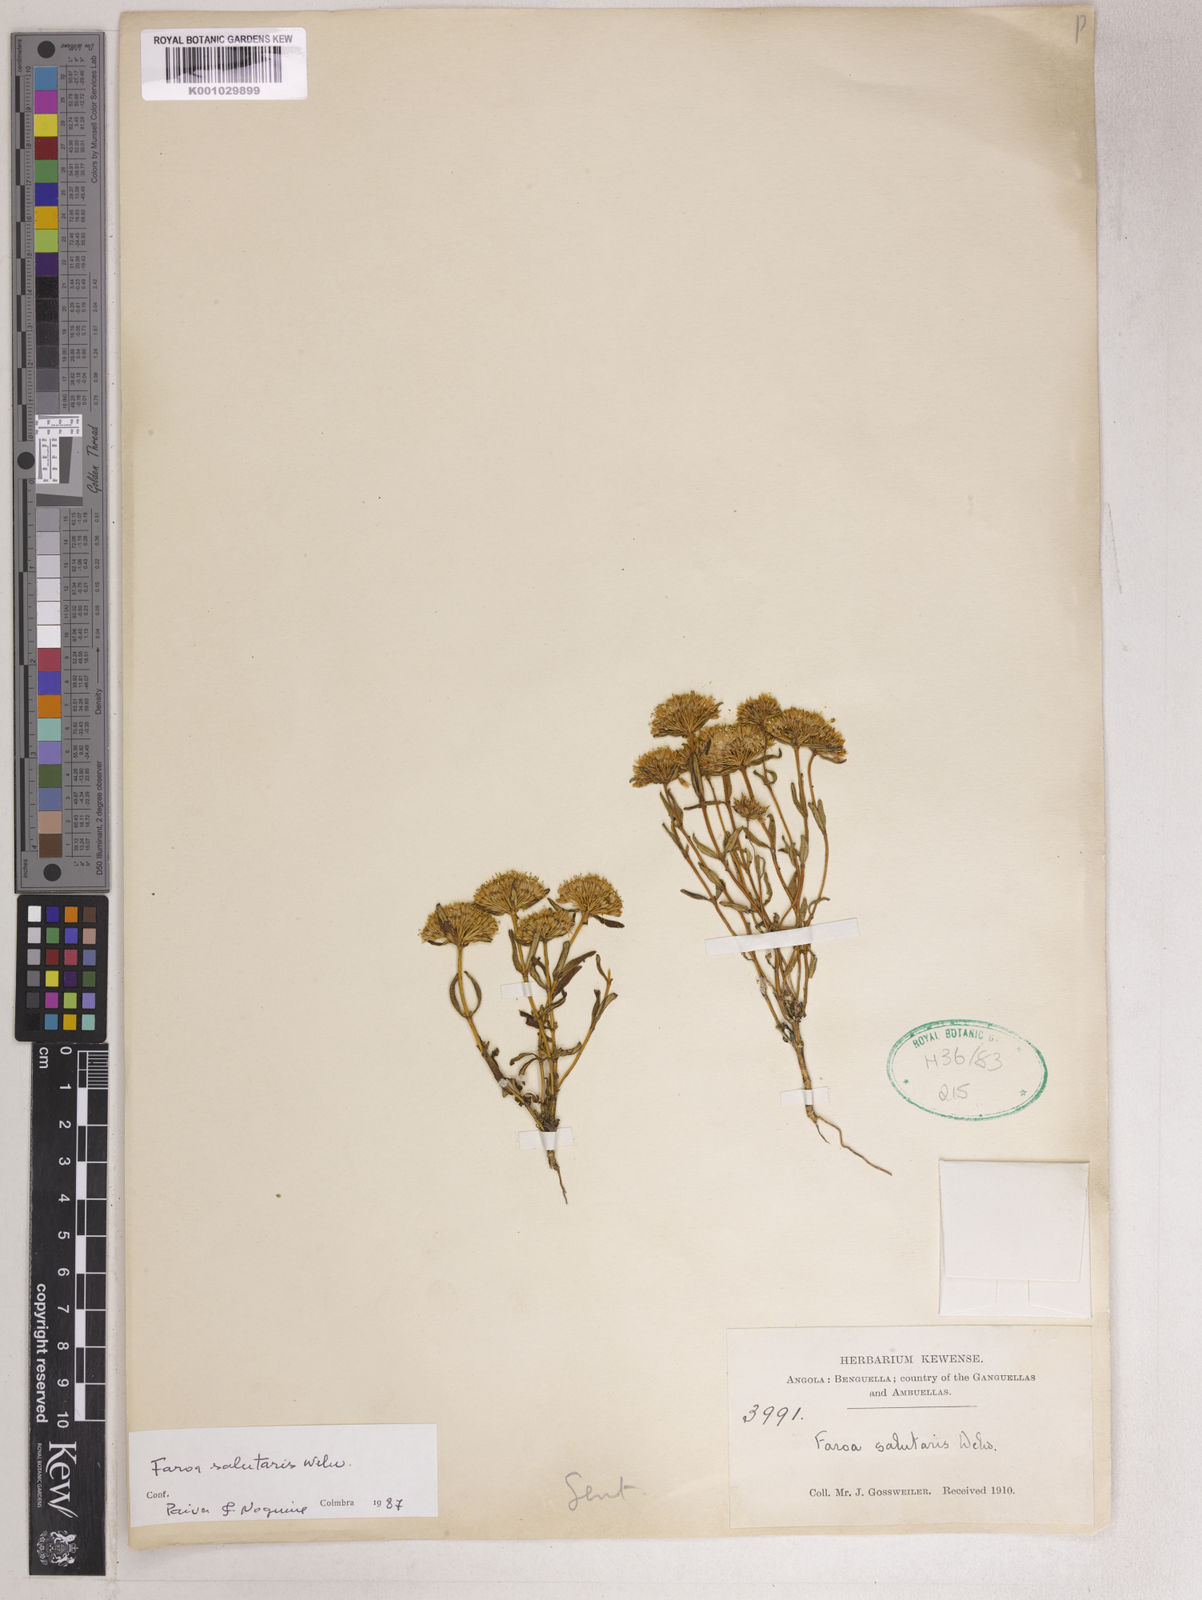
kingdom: Plantae
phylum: Tracheophyta
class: Magnoliopsida
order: Gentianales
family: Gentianaceae
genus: Faroa
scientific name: Faroa salutaris
